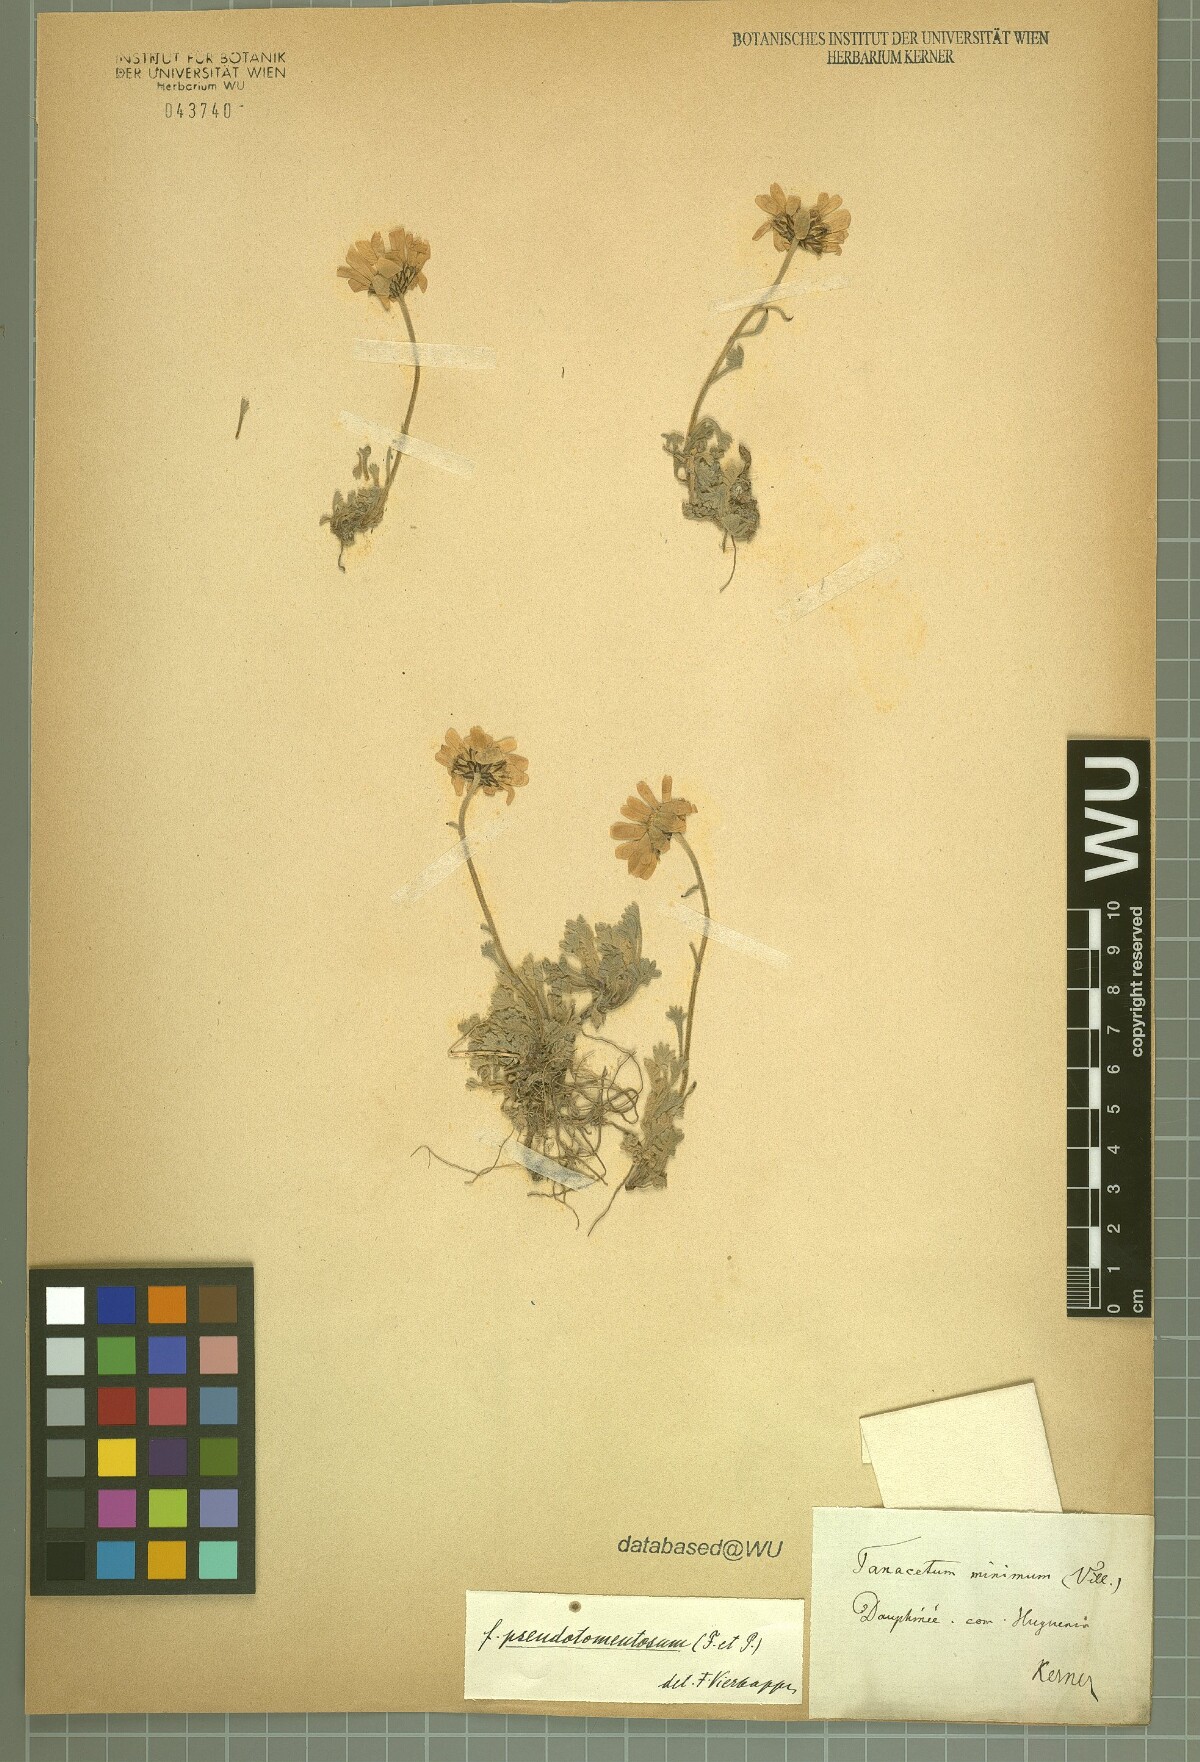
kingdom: Plantae
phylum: Tracheophyta
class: Magnoliopsida
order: Asterales
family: Asteraceae
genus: Leucanthemopsis
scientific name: Leucanthemopsis alpina
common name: Alpine moon daisy
